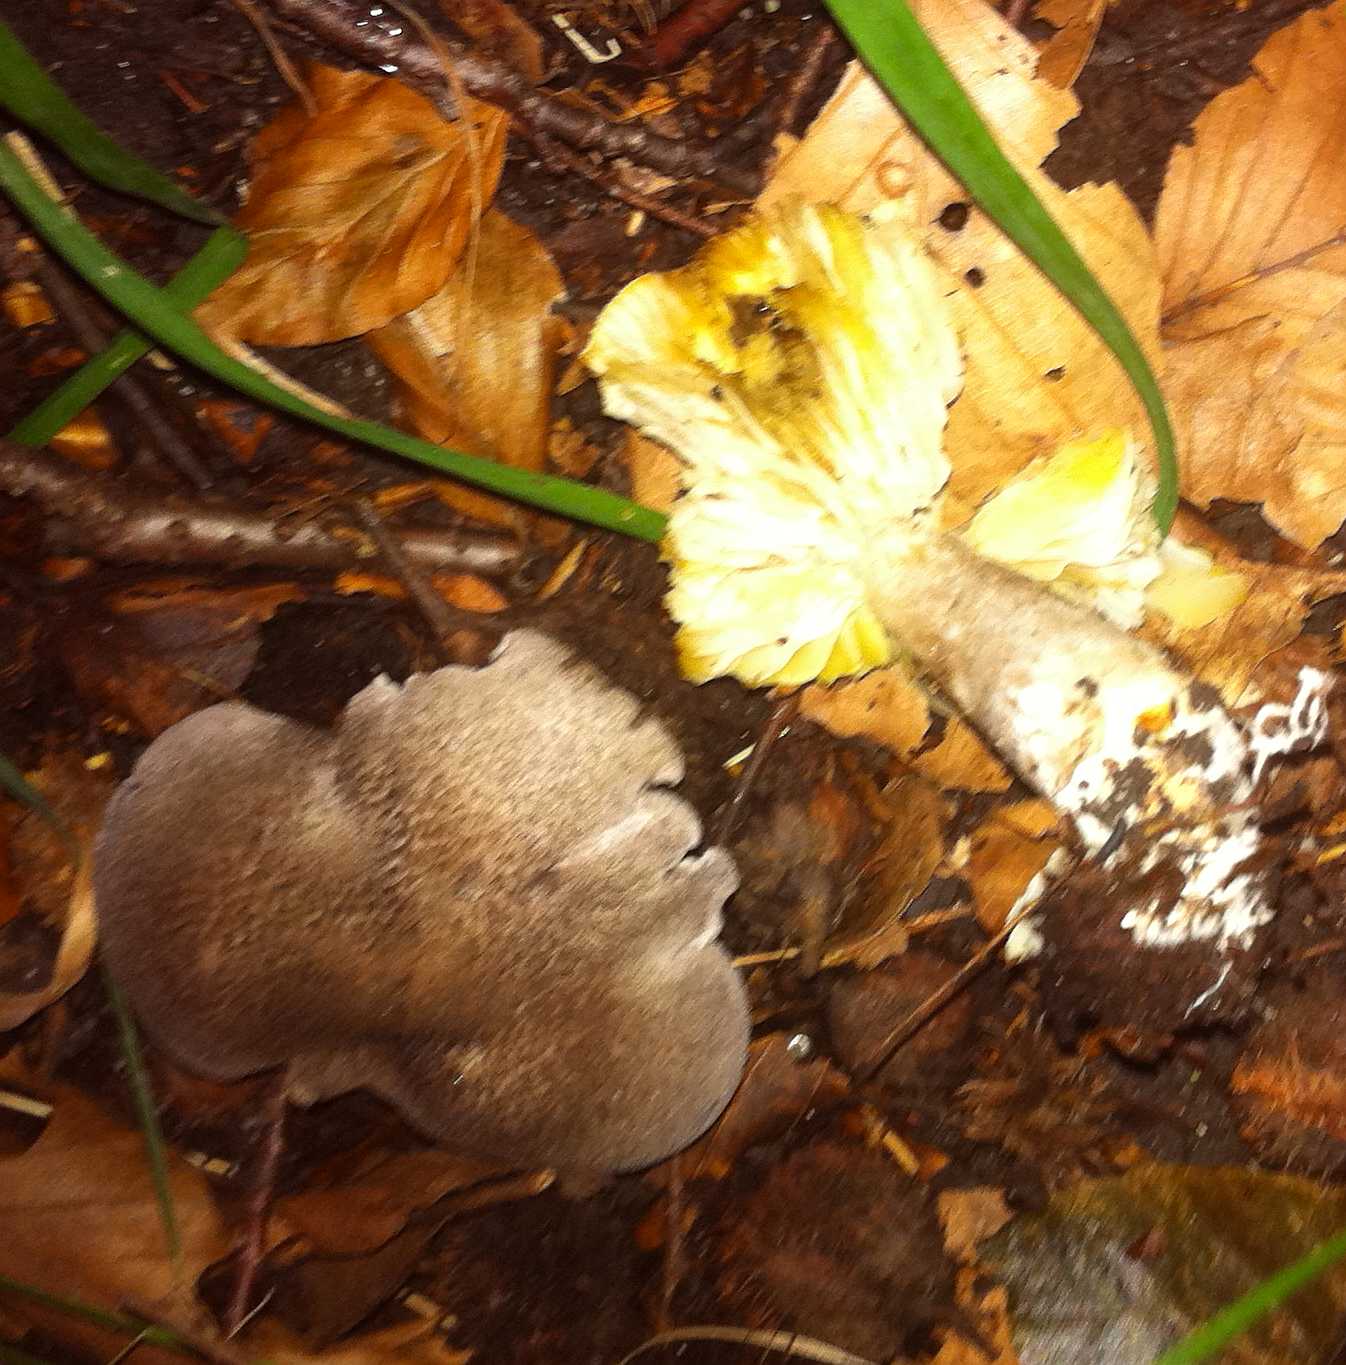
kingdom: Fungi
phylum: Basidiomycota
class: Agaricomycetes
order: Agaricales
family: Tricholomataceae
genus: Tricholoma
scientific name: Tricholoma scalpturatum
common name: gulplettet ridderhat
